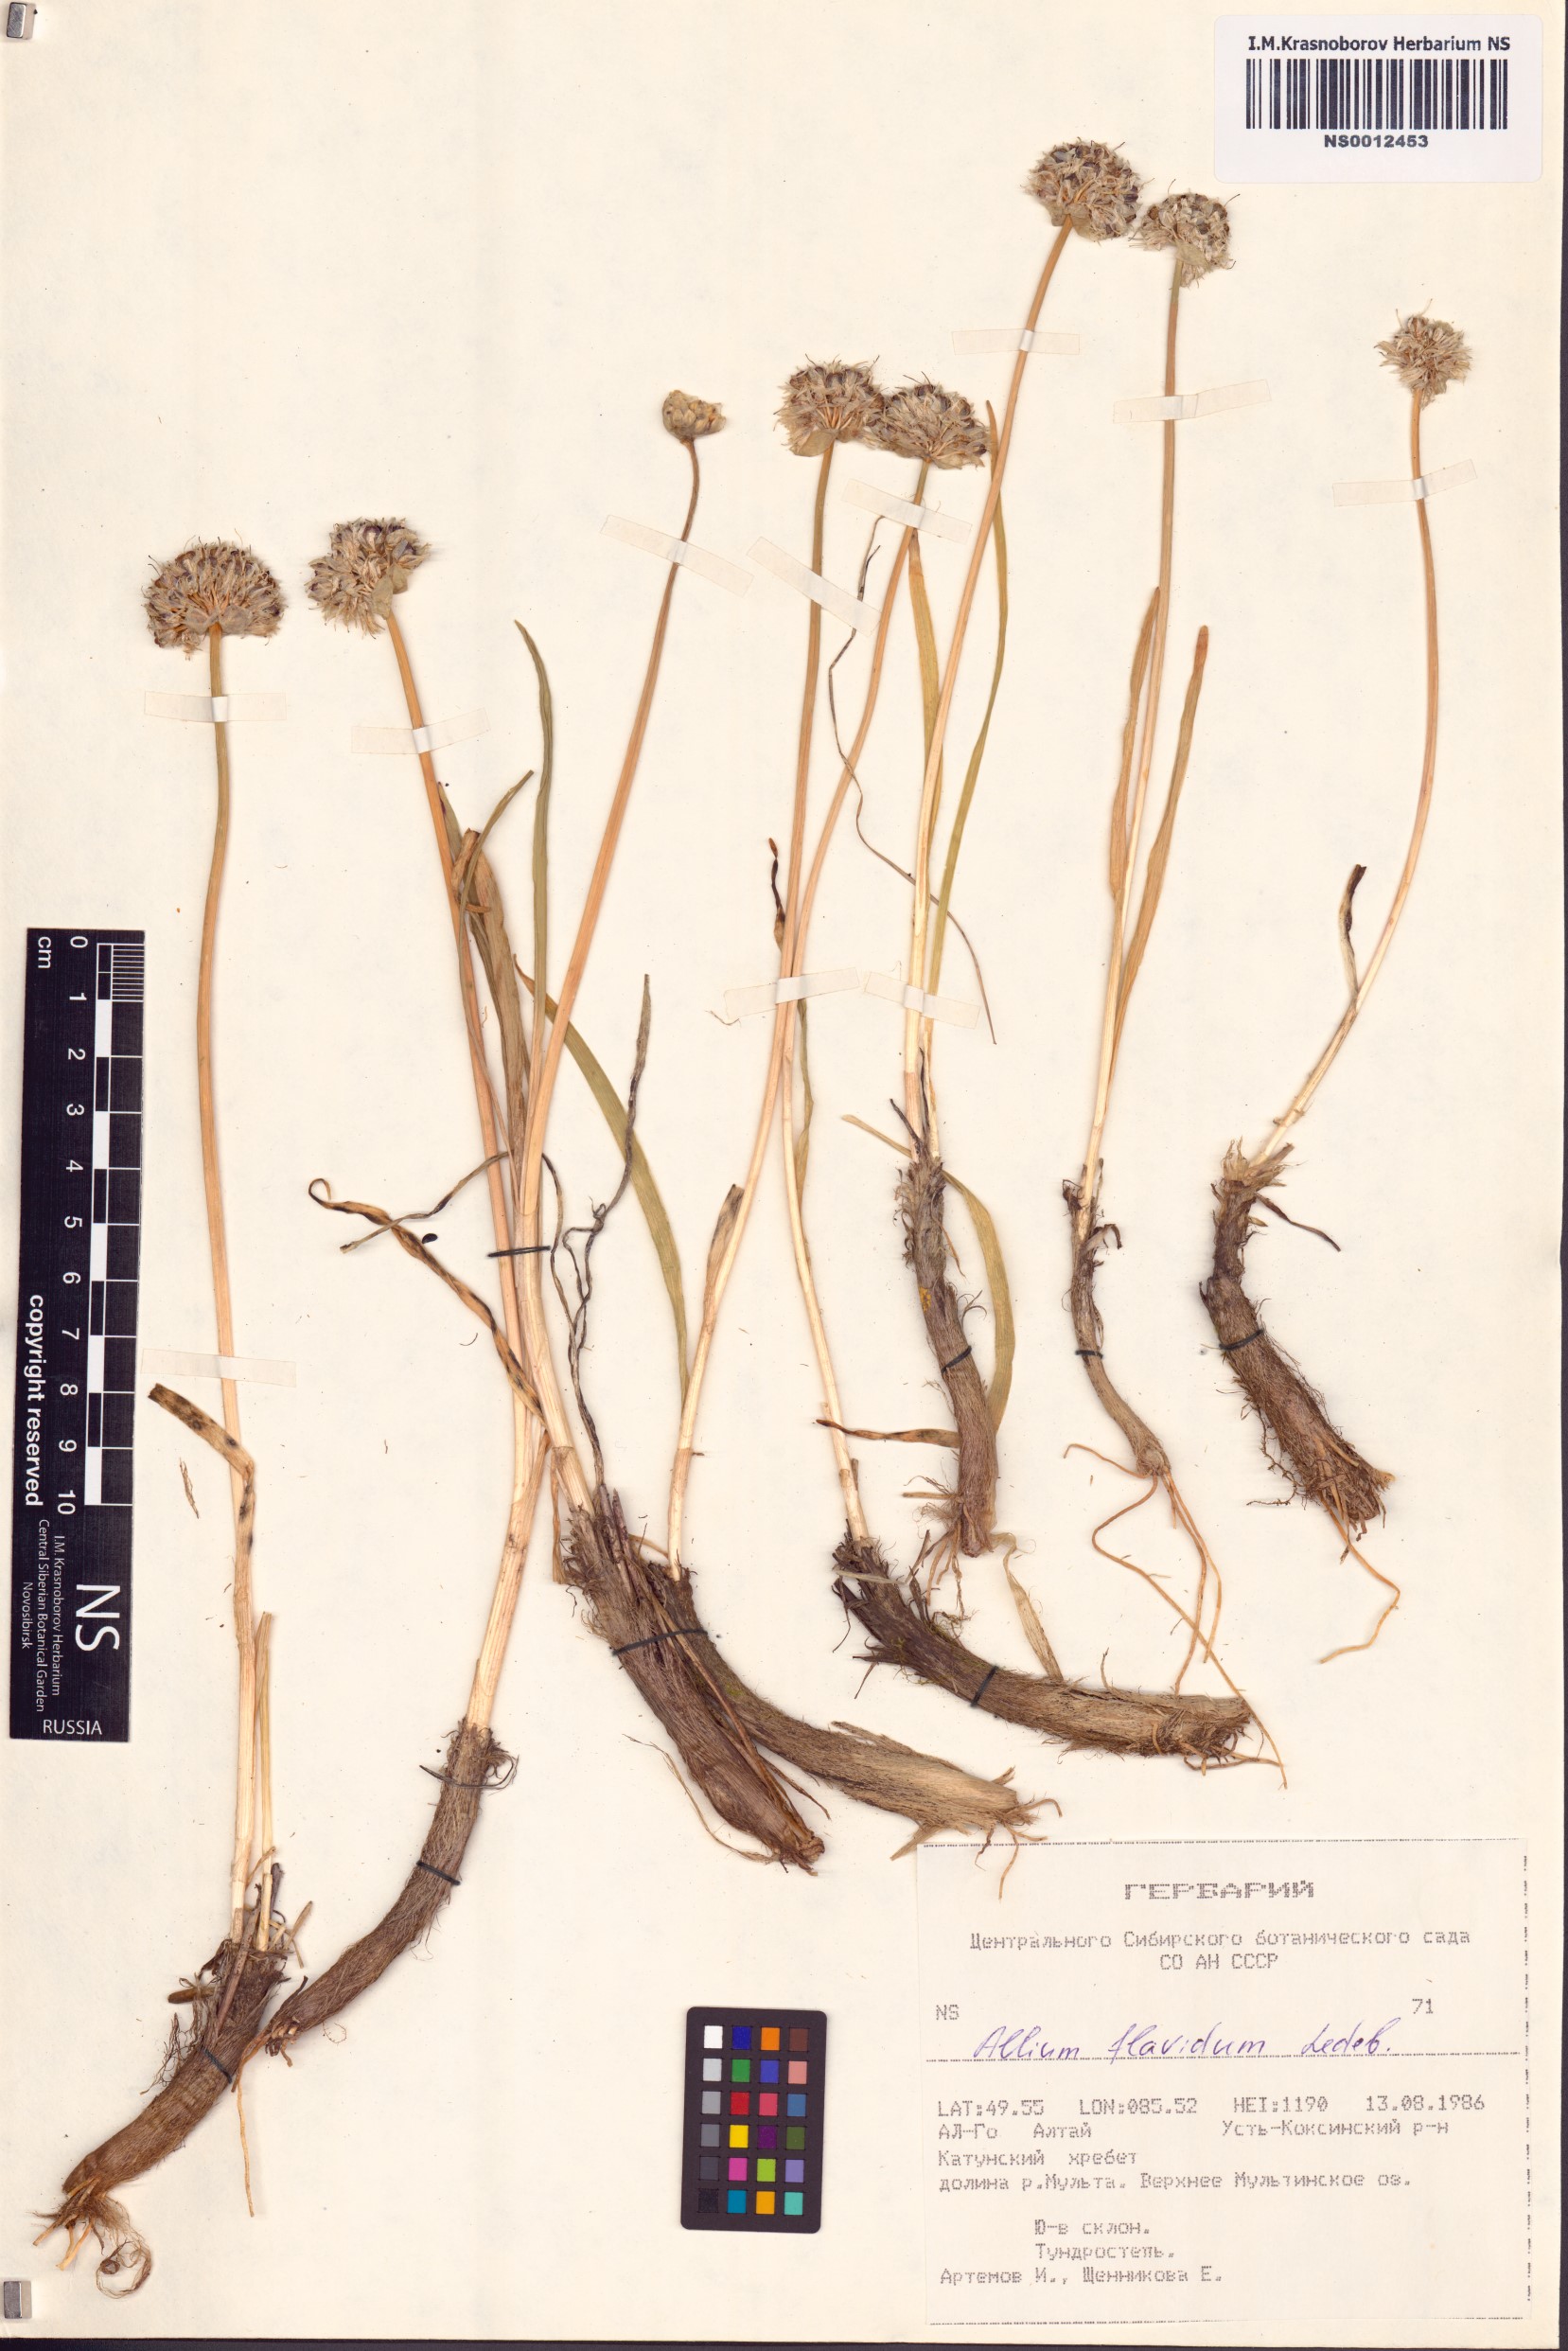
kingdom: Plantae
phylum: Tracheophyta
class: Liliopsida
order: Asparagales
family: Amaryllidaceae
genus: Allium
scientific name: Allium flavidum
